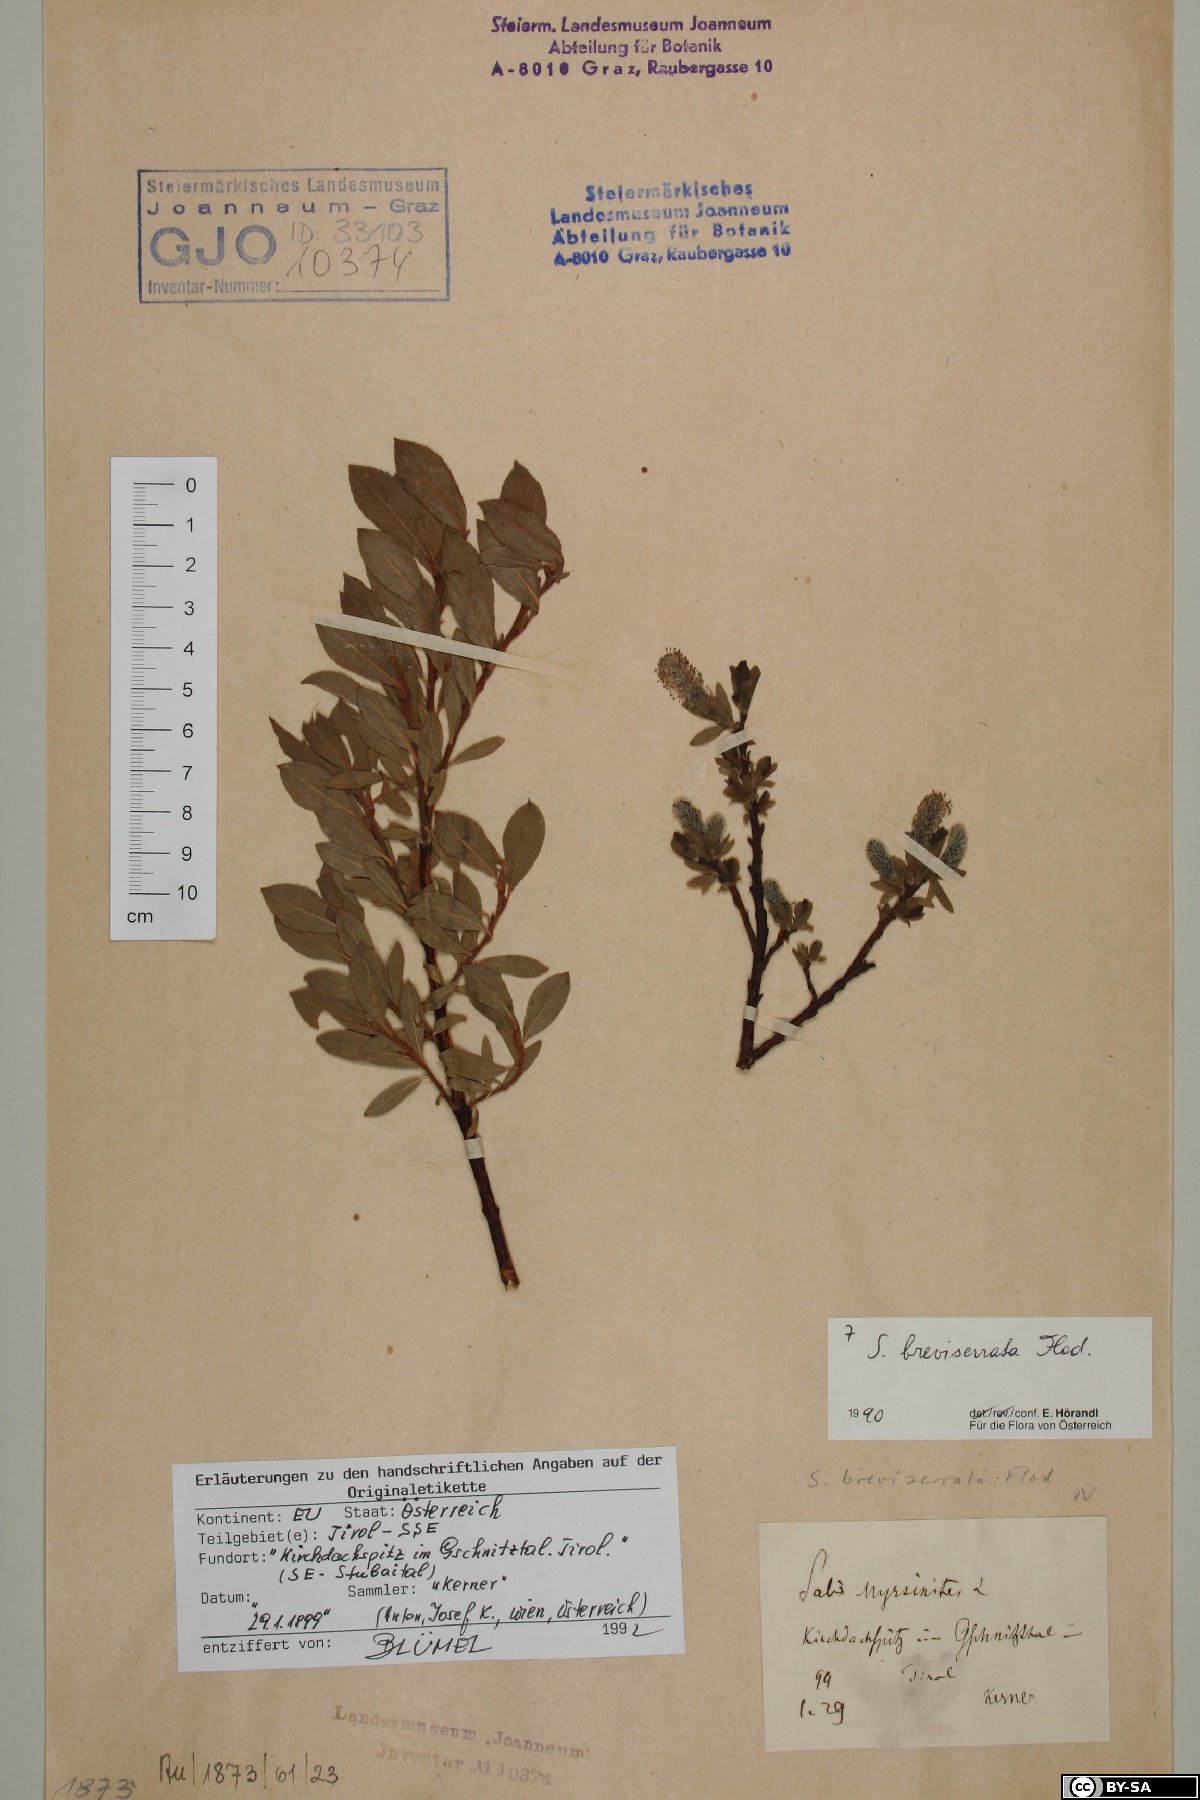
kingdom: Plantae
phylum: Tracheophyta
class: Magnoliopsida
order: Malpighiales
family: Salicaceae
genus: Salix
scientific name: Salix breviserrata
